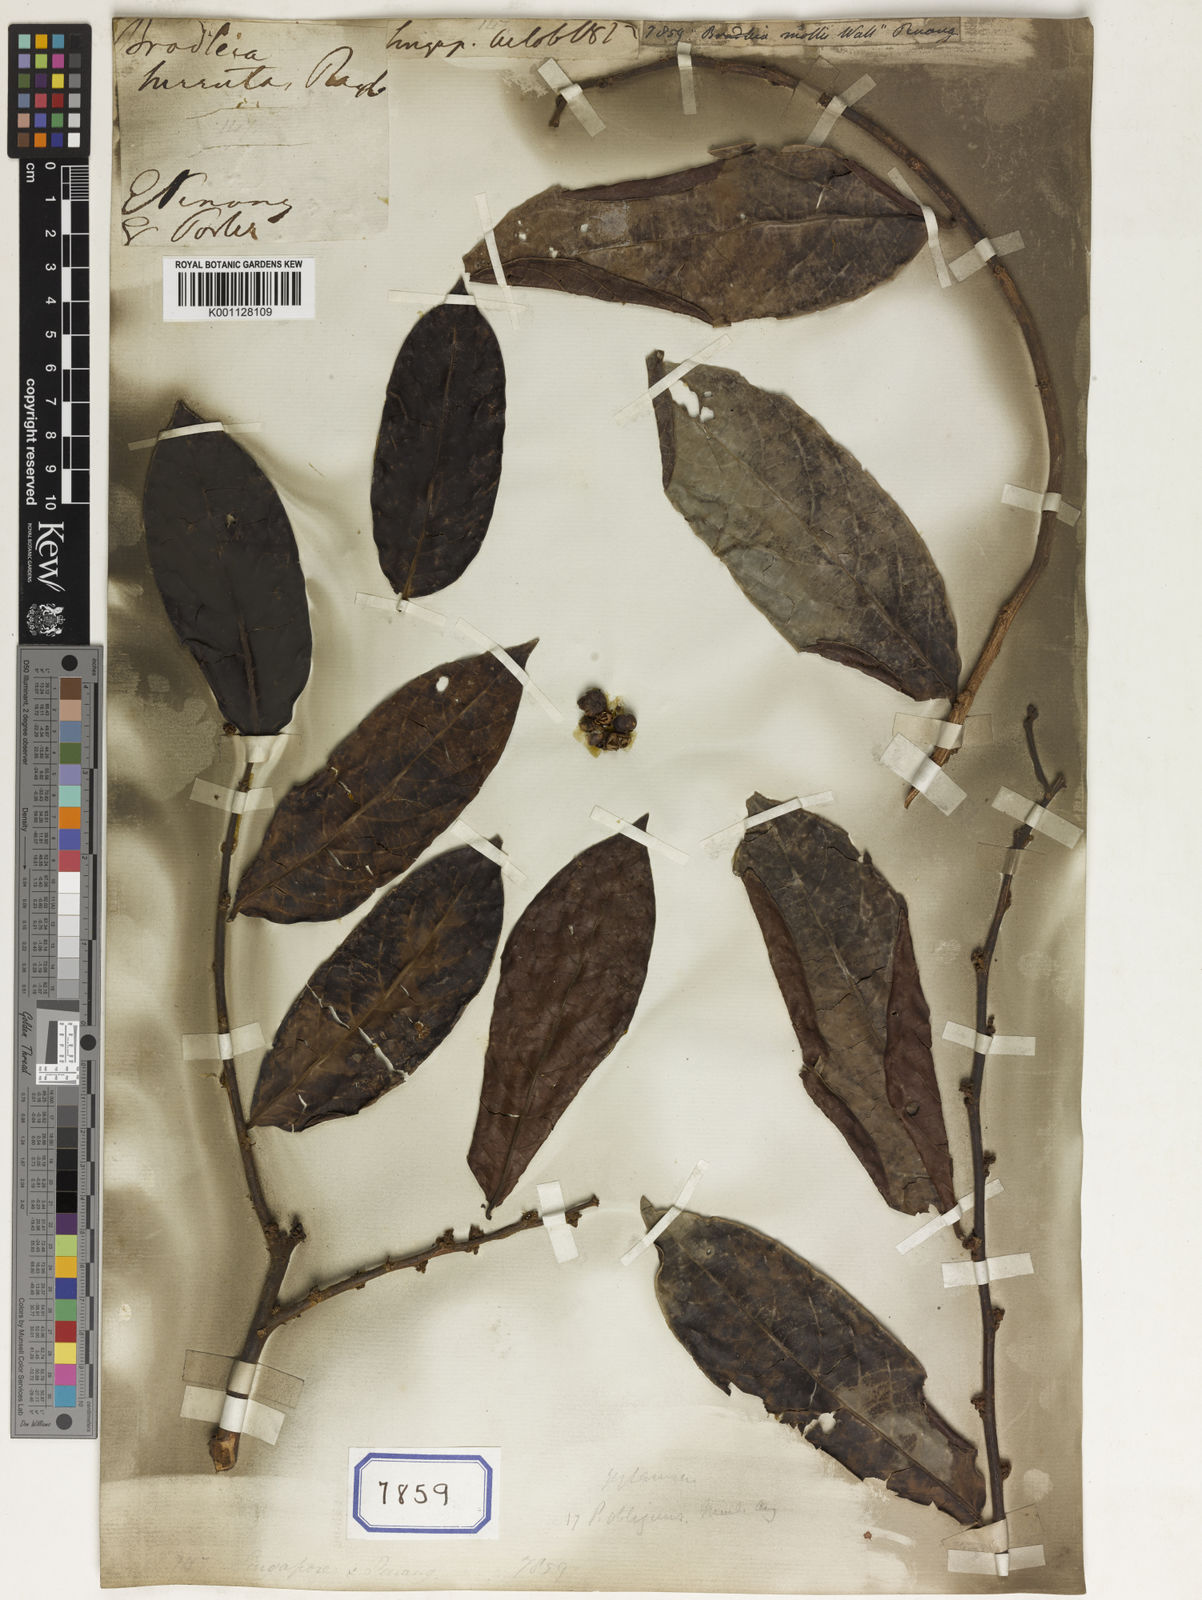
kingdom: Plantae
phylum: Tracheophyta
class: Magnoliopsida
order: Malpighiales
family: Euphorbiaceae
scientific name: Euphorbiaceae
